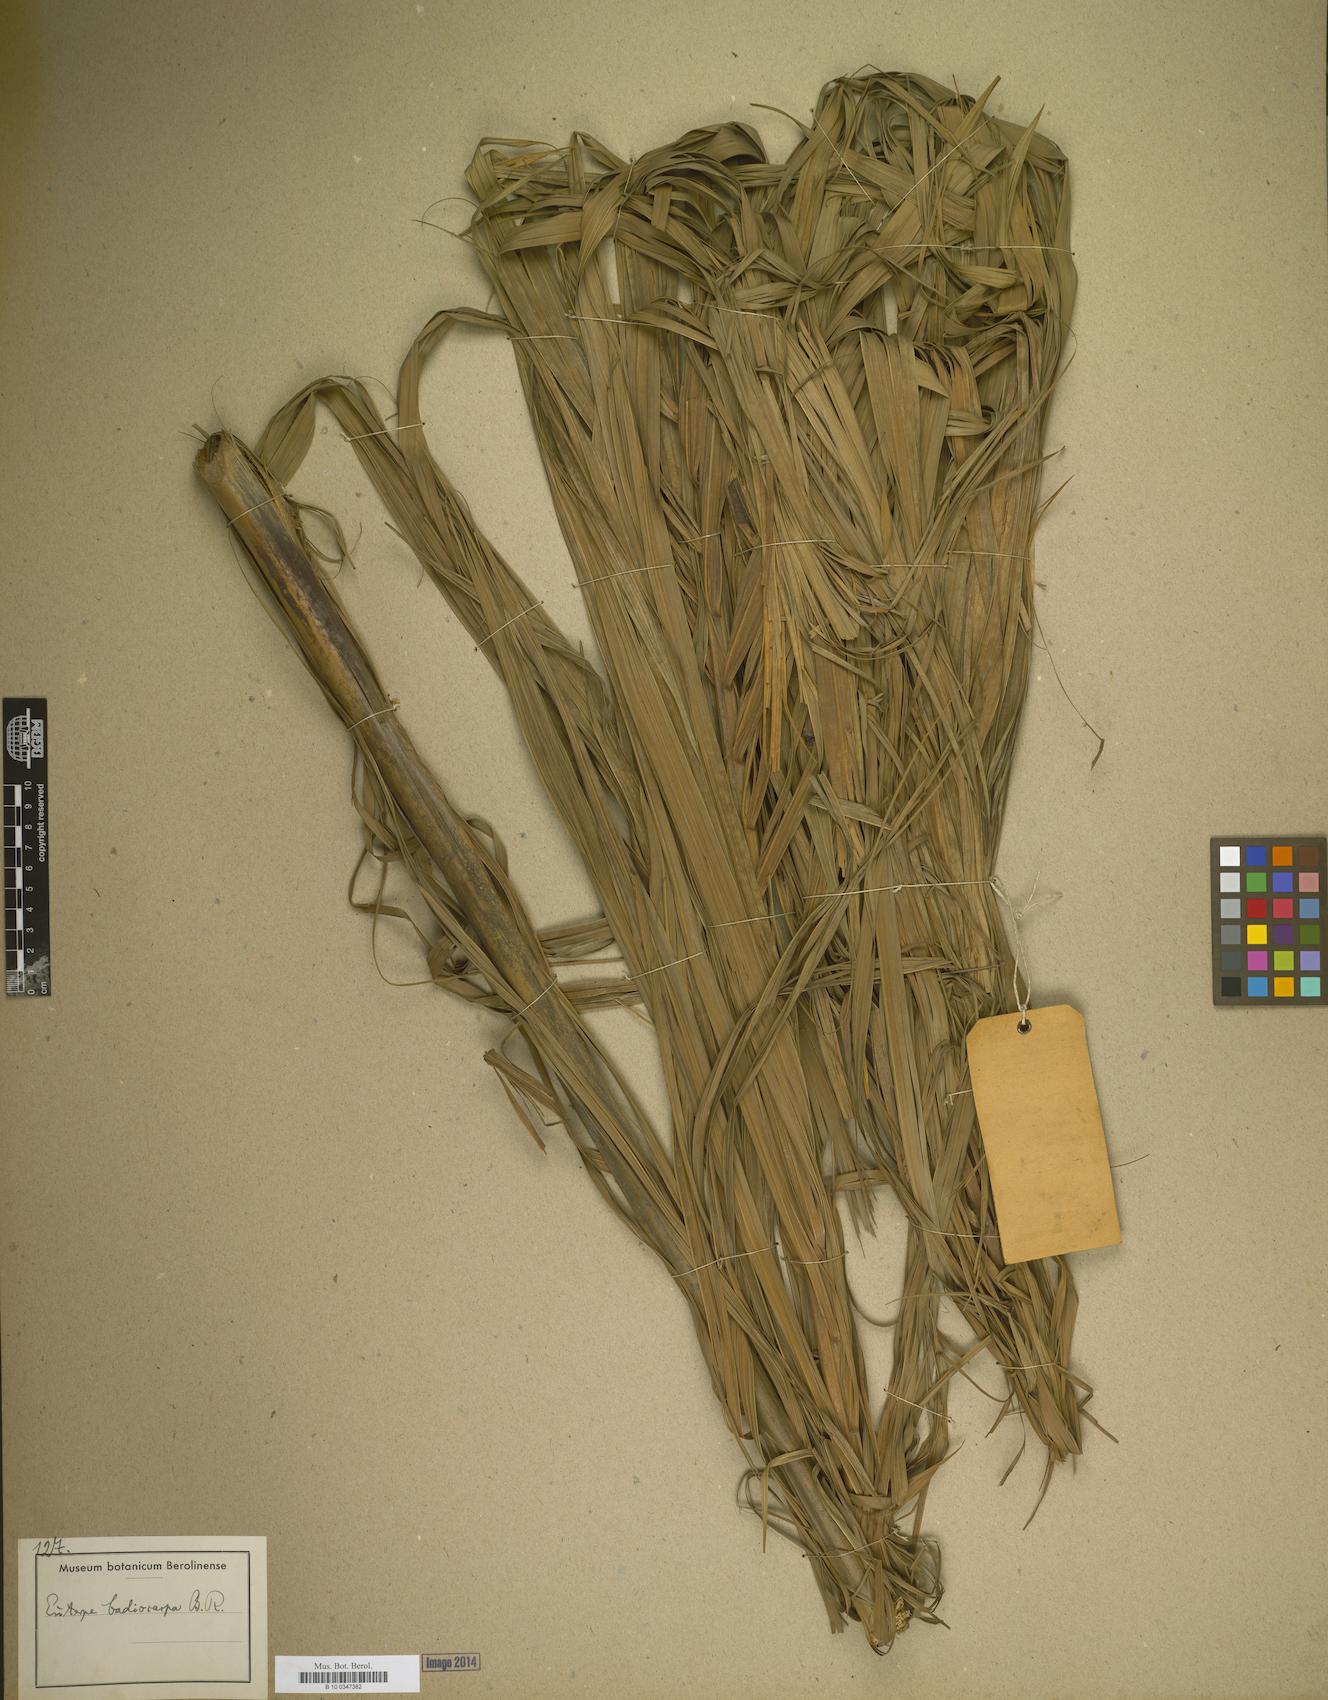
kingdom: Plantae
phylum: Tracheophyta
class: Liliopsida
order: Arecales
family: Arecaceae
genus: Euterpe
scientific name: Euterpe oleracea
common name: Assai palm
